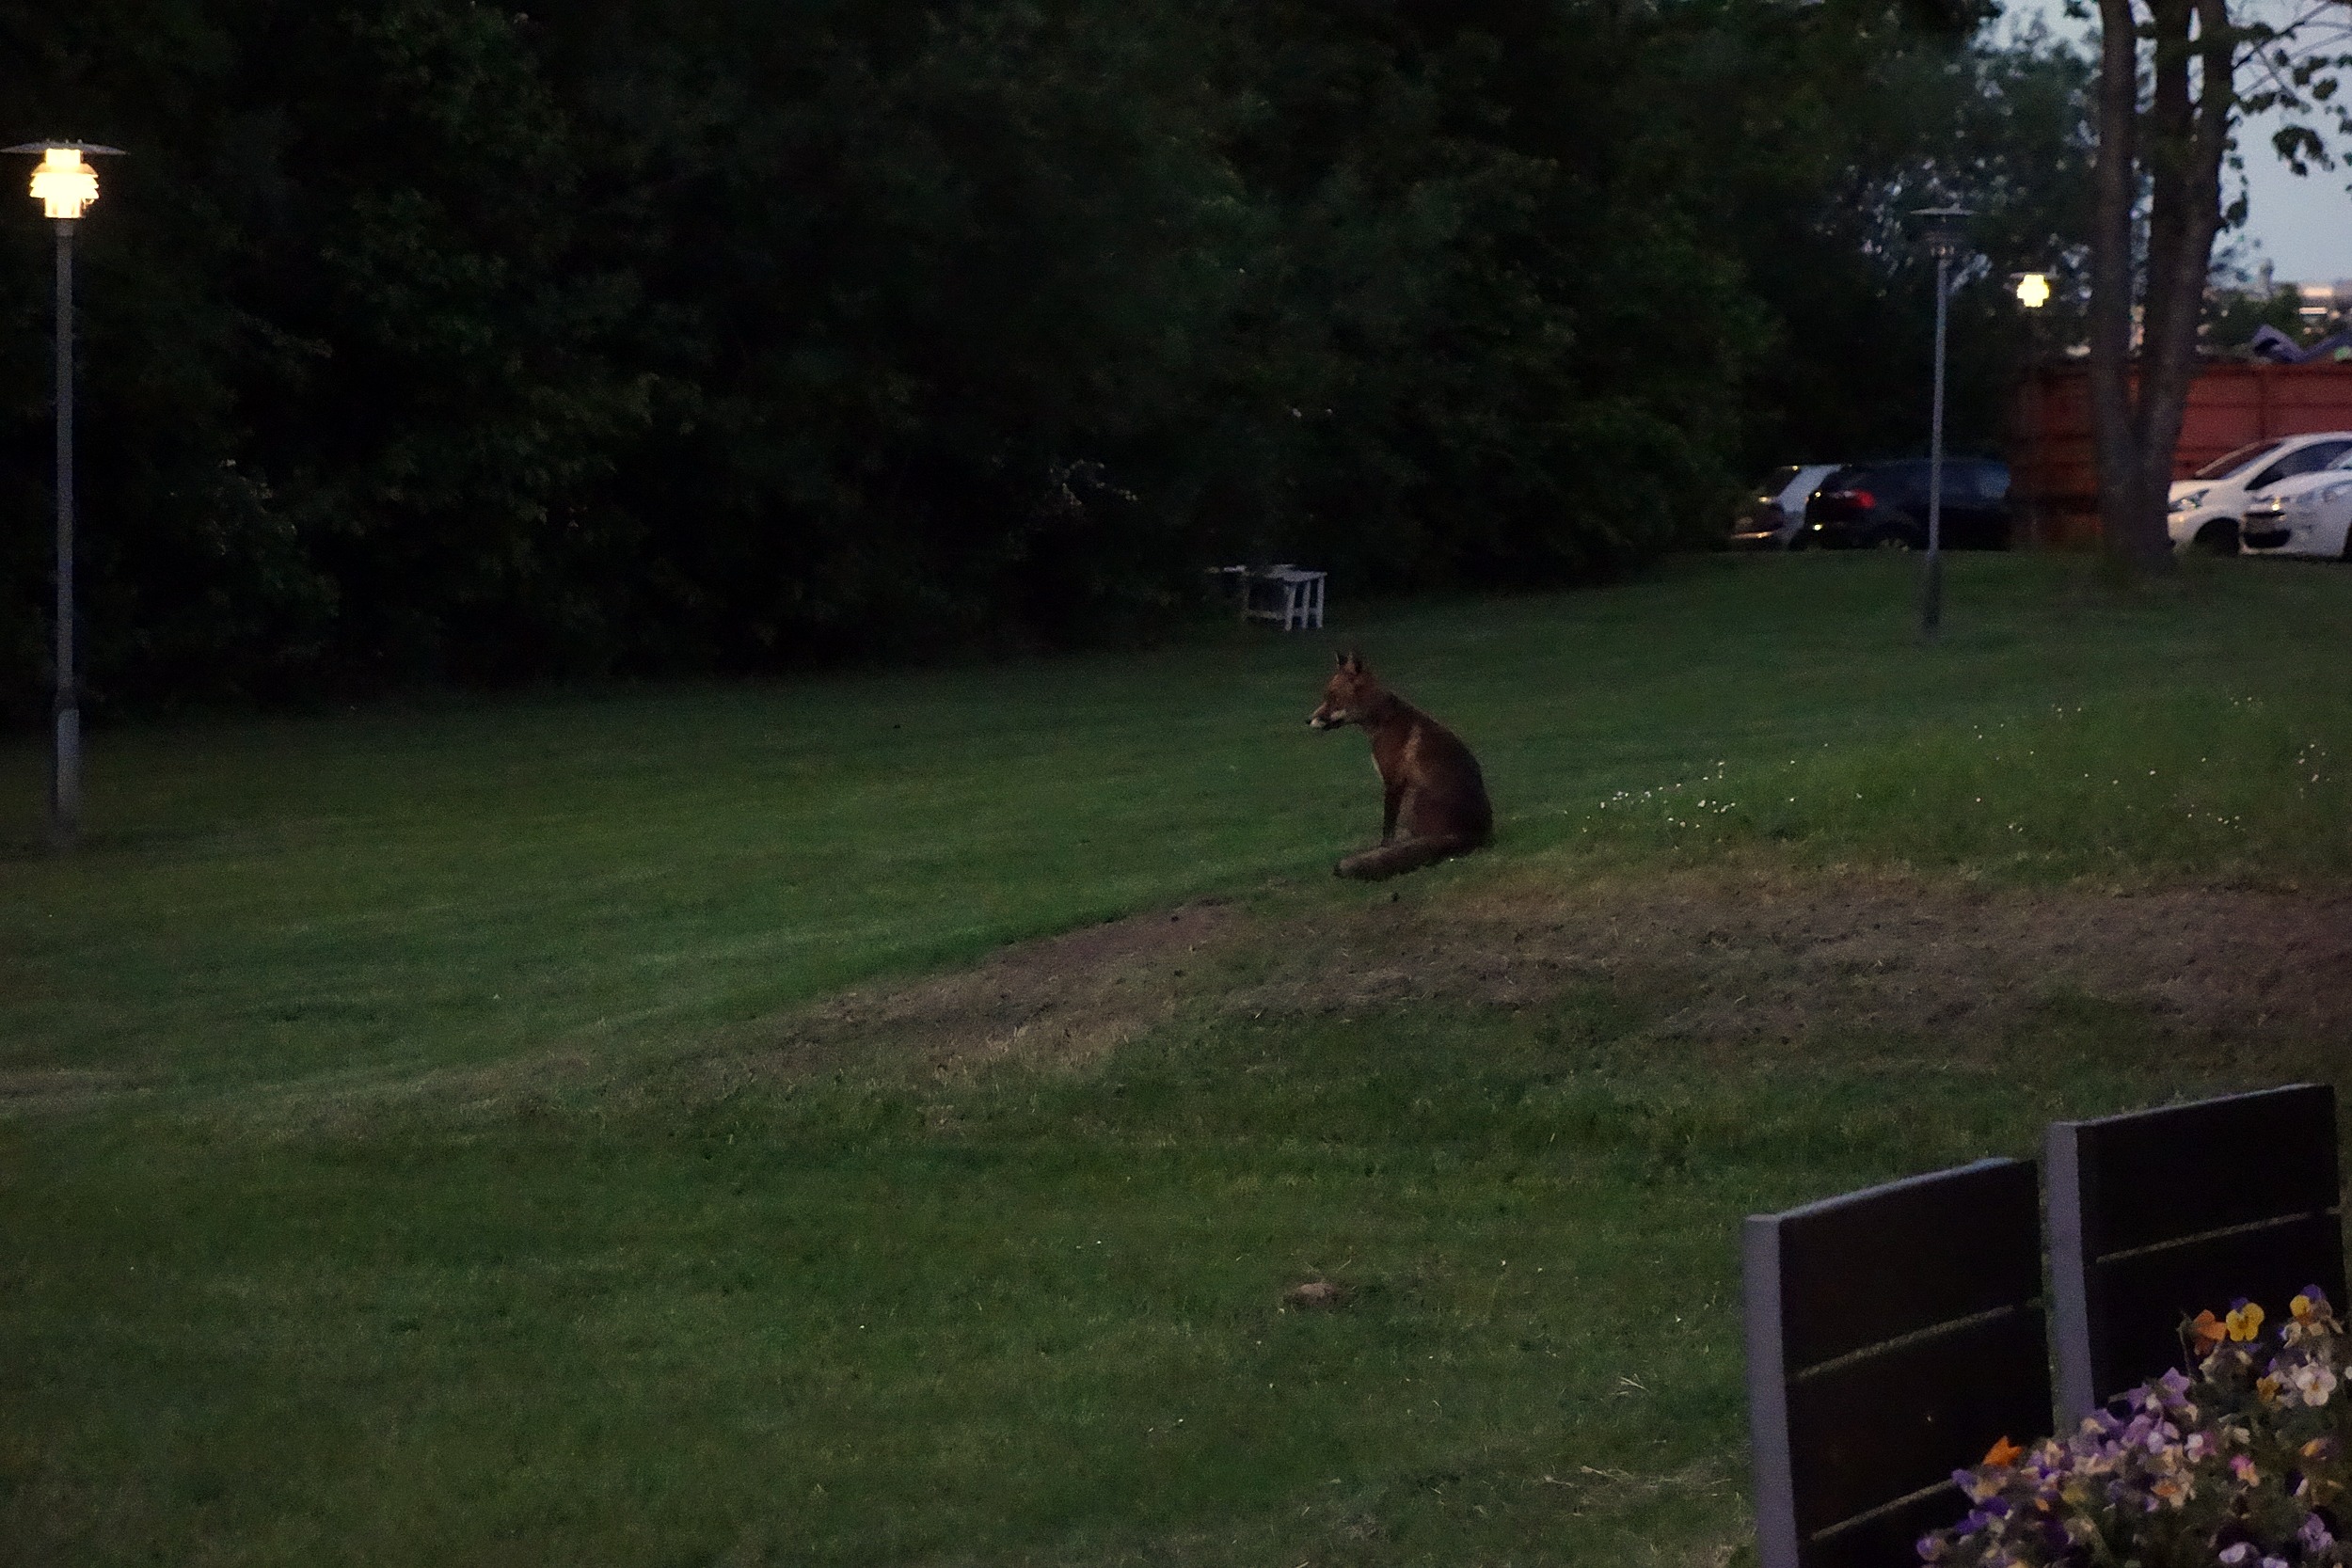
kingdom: Animalia
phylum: Chordata
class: Mammalia
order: Carnivora
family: Canidae
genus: Vulpes
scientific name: Vulpes vulpes
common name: Ræv
